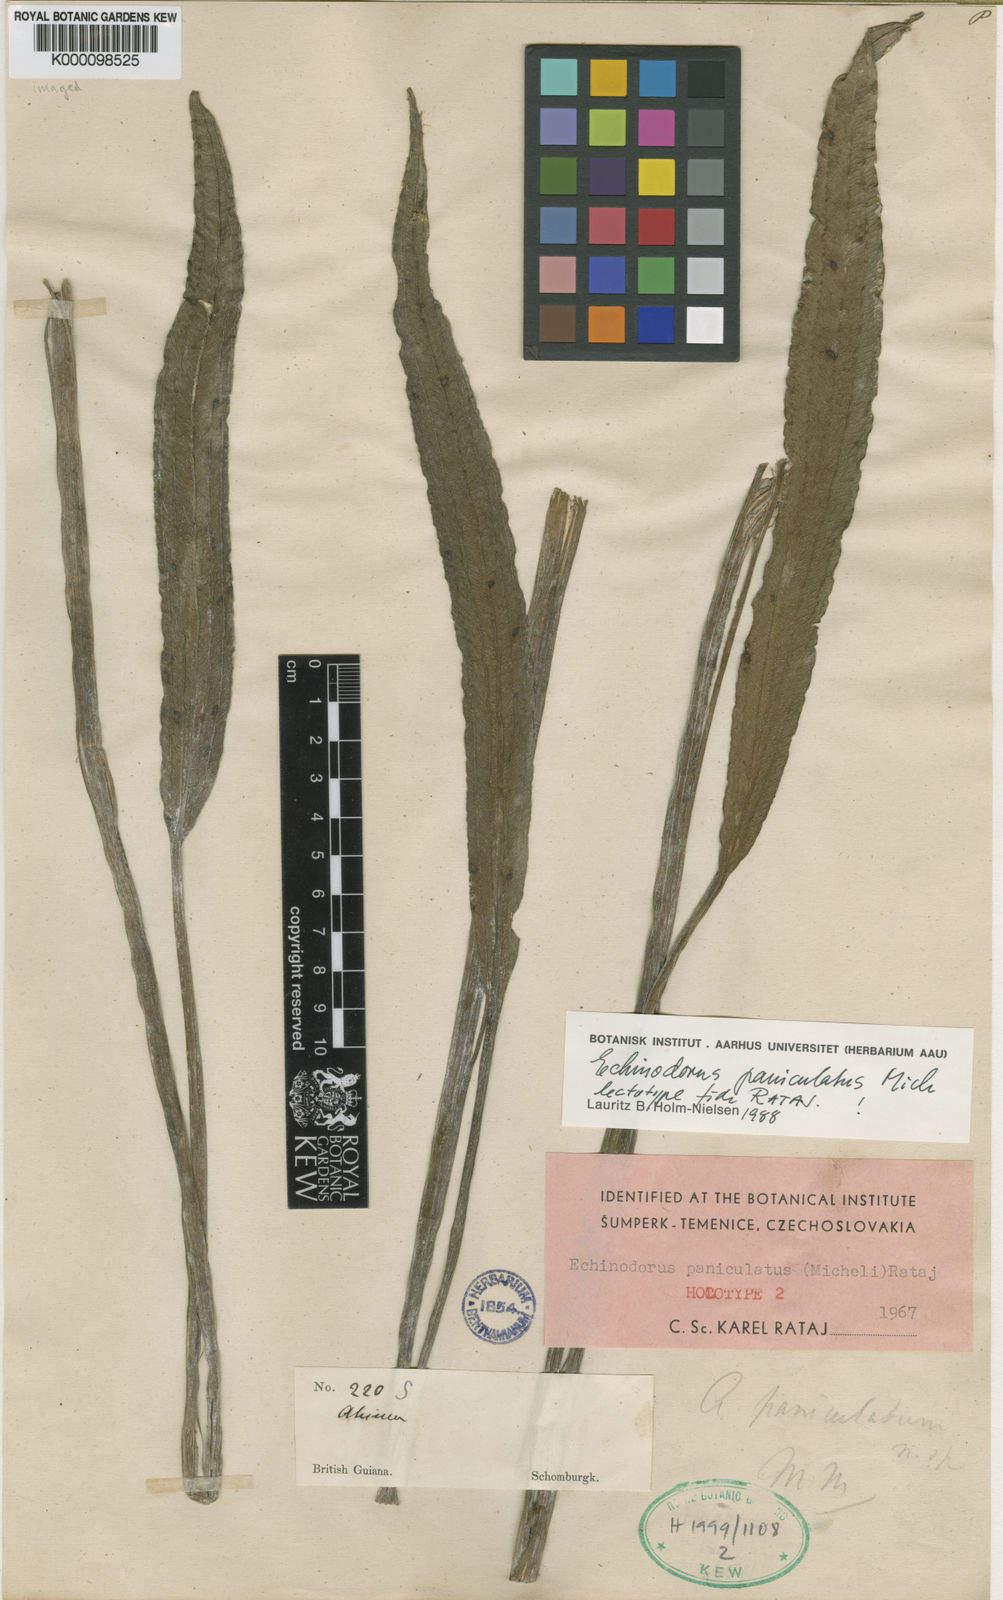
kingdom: Plantae
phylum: Tracheophyta
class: Liliopsida
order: Alismatales
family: Alismataceae
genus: Echinodorus
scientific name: Echinodorus
